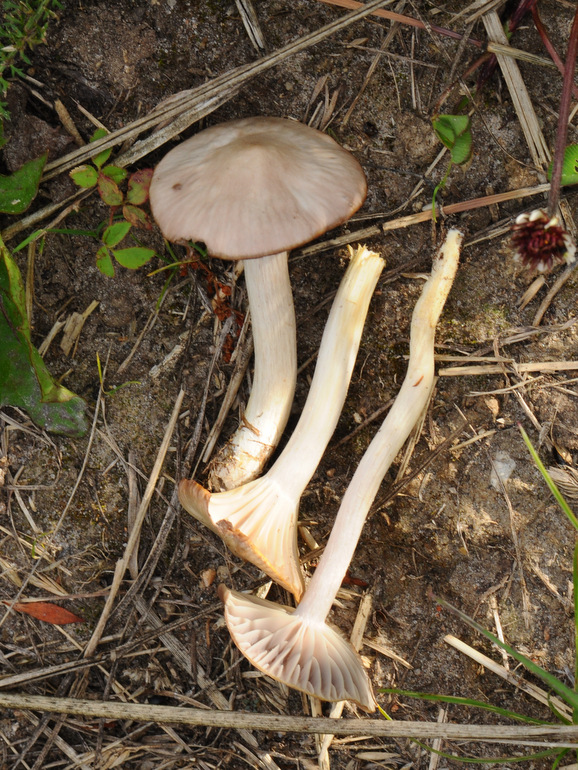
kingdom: Fungi
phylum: Basidiomycota
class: Agaricomycetes
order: Agaricales
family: Hygrophoraceae
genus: Cuphophyllus
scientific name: Cuphophyllus flavipes
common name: gulfodet vokshat
